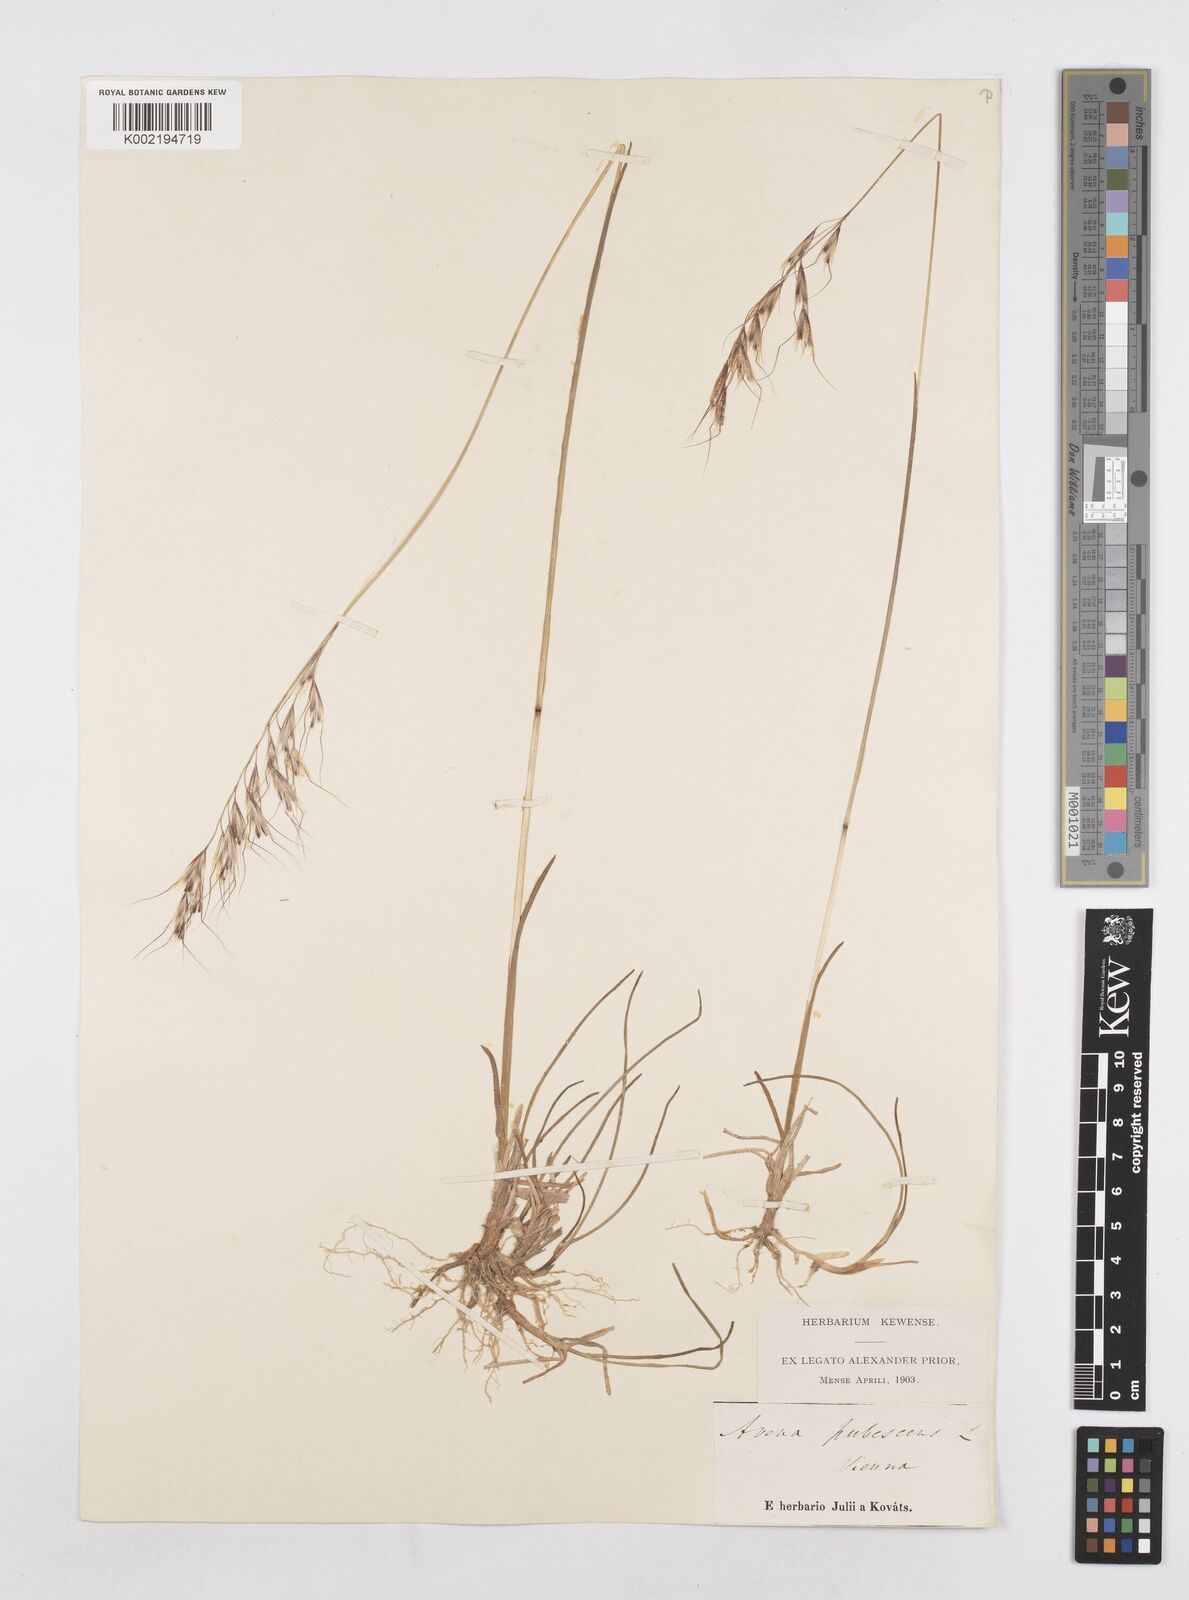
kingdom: Plantae
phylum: Tracheophyta
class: Liliopsida
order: Poales
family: Poaceae
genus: Avenula
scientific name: Avenula pubescens
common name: Downy alpine oatgrass
